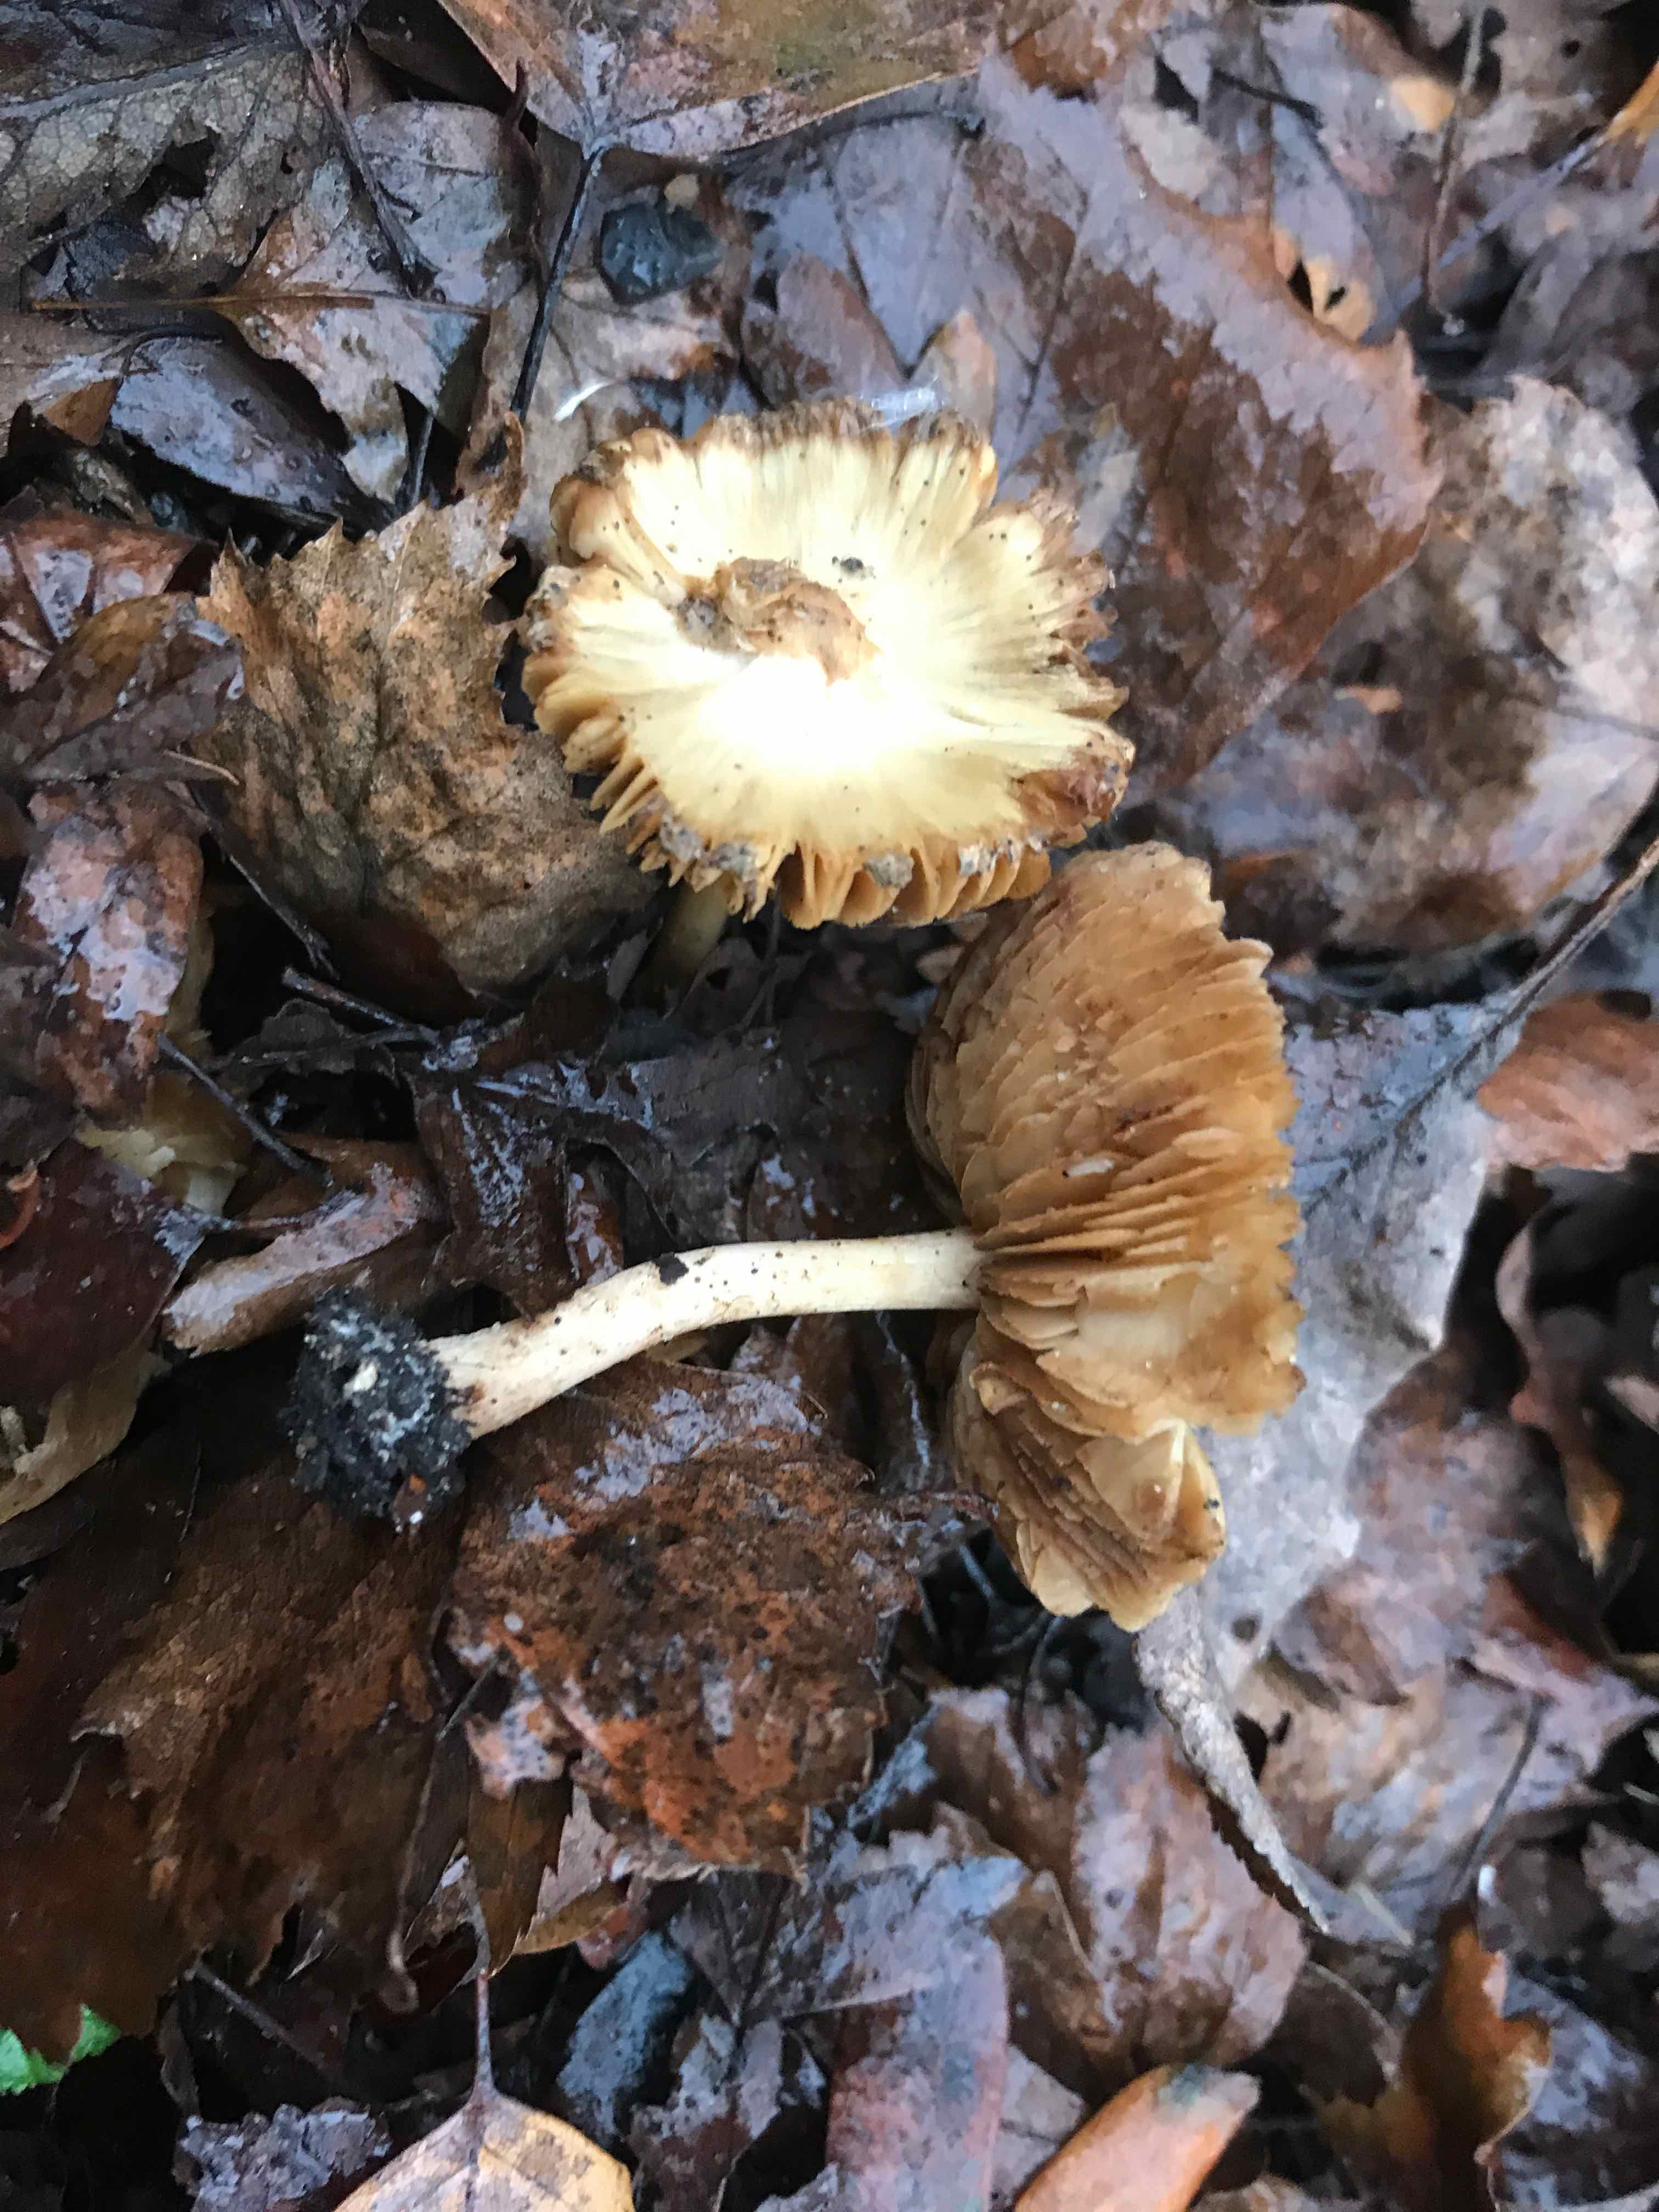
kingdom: Fungi
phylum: Basidiomycota
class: Agaricomycetes
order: Agaricales
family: Inocybaceae
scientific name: Inocybaceae
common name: trævlhatfamilien
